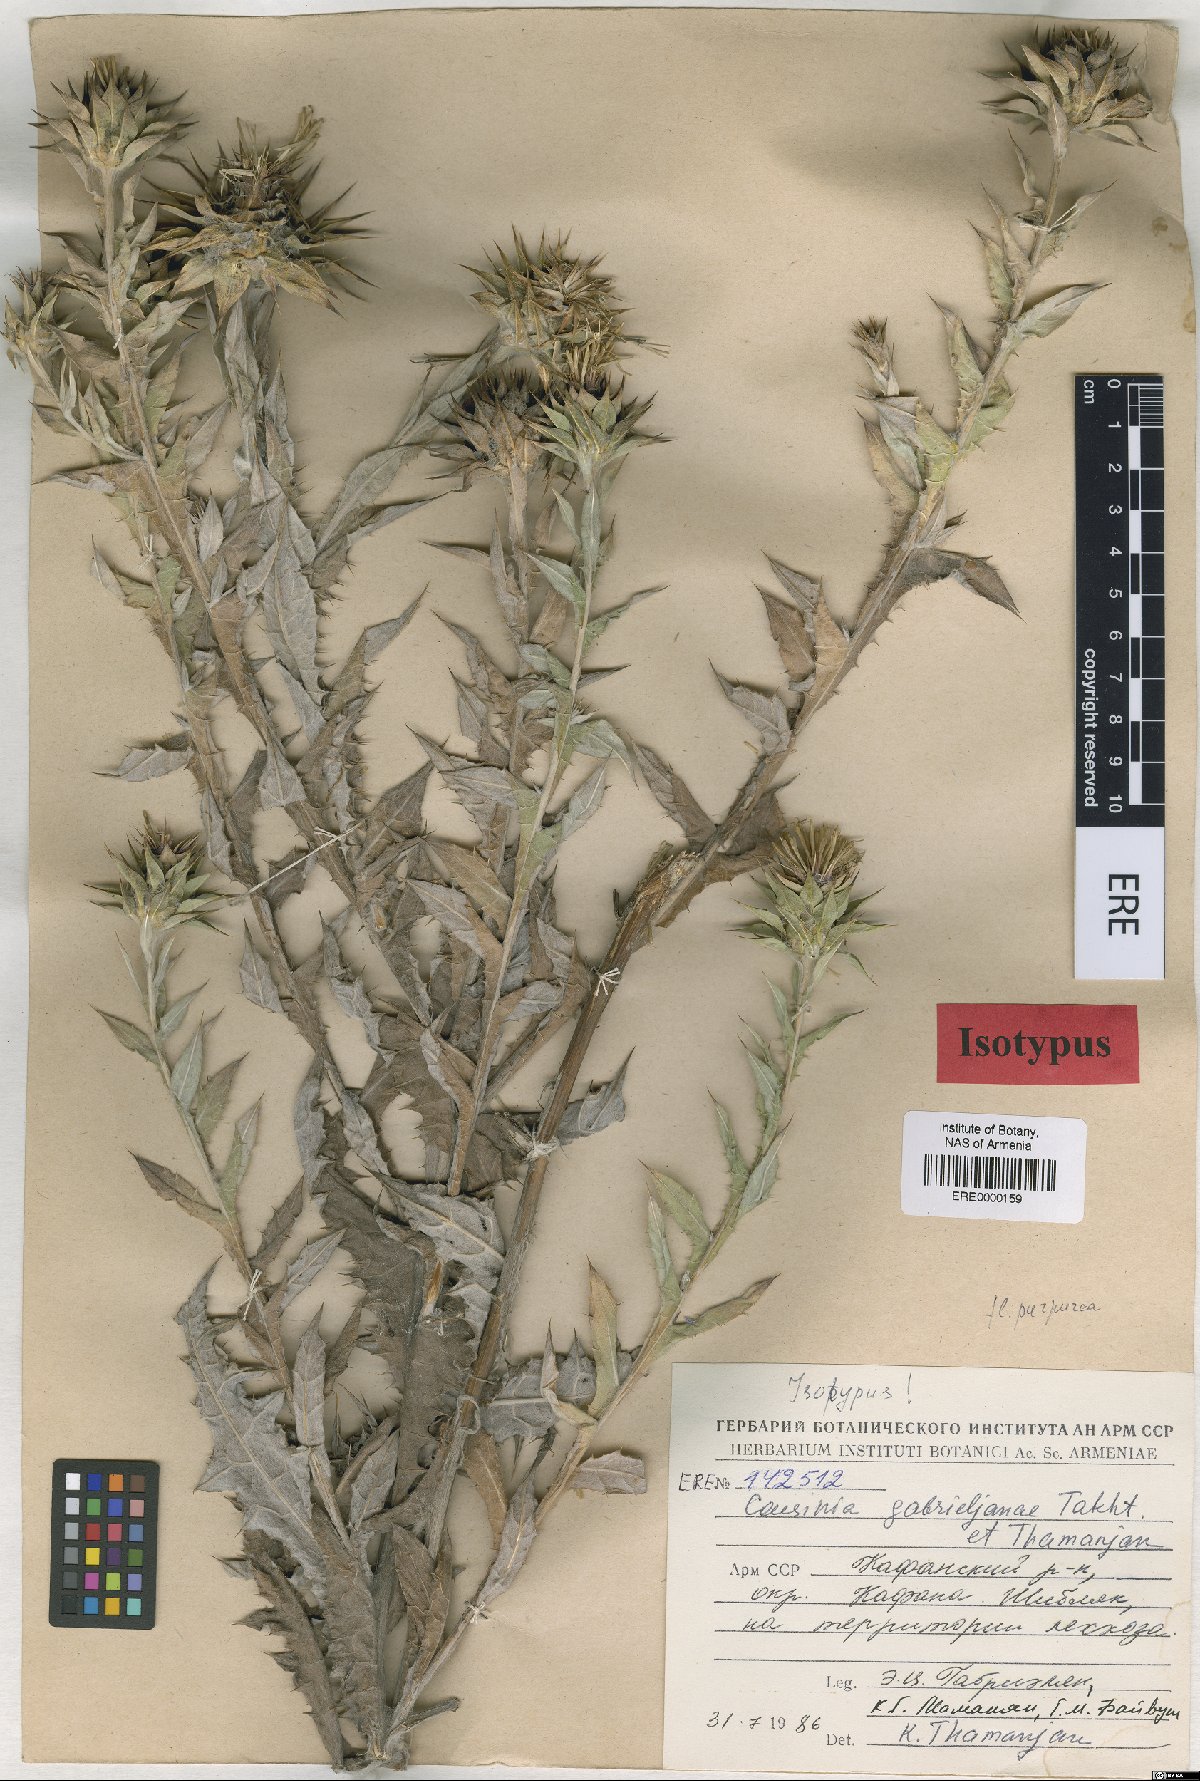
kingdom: Plantae
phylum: Tracheophyta
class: Magnoliopsida
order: Asterales
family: Asteraceae
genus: Cousinia
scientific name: Cousinia macrocephala
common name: Macrocephalous cousinia
